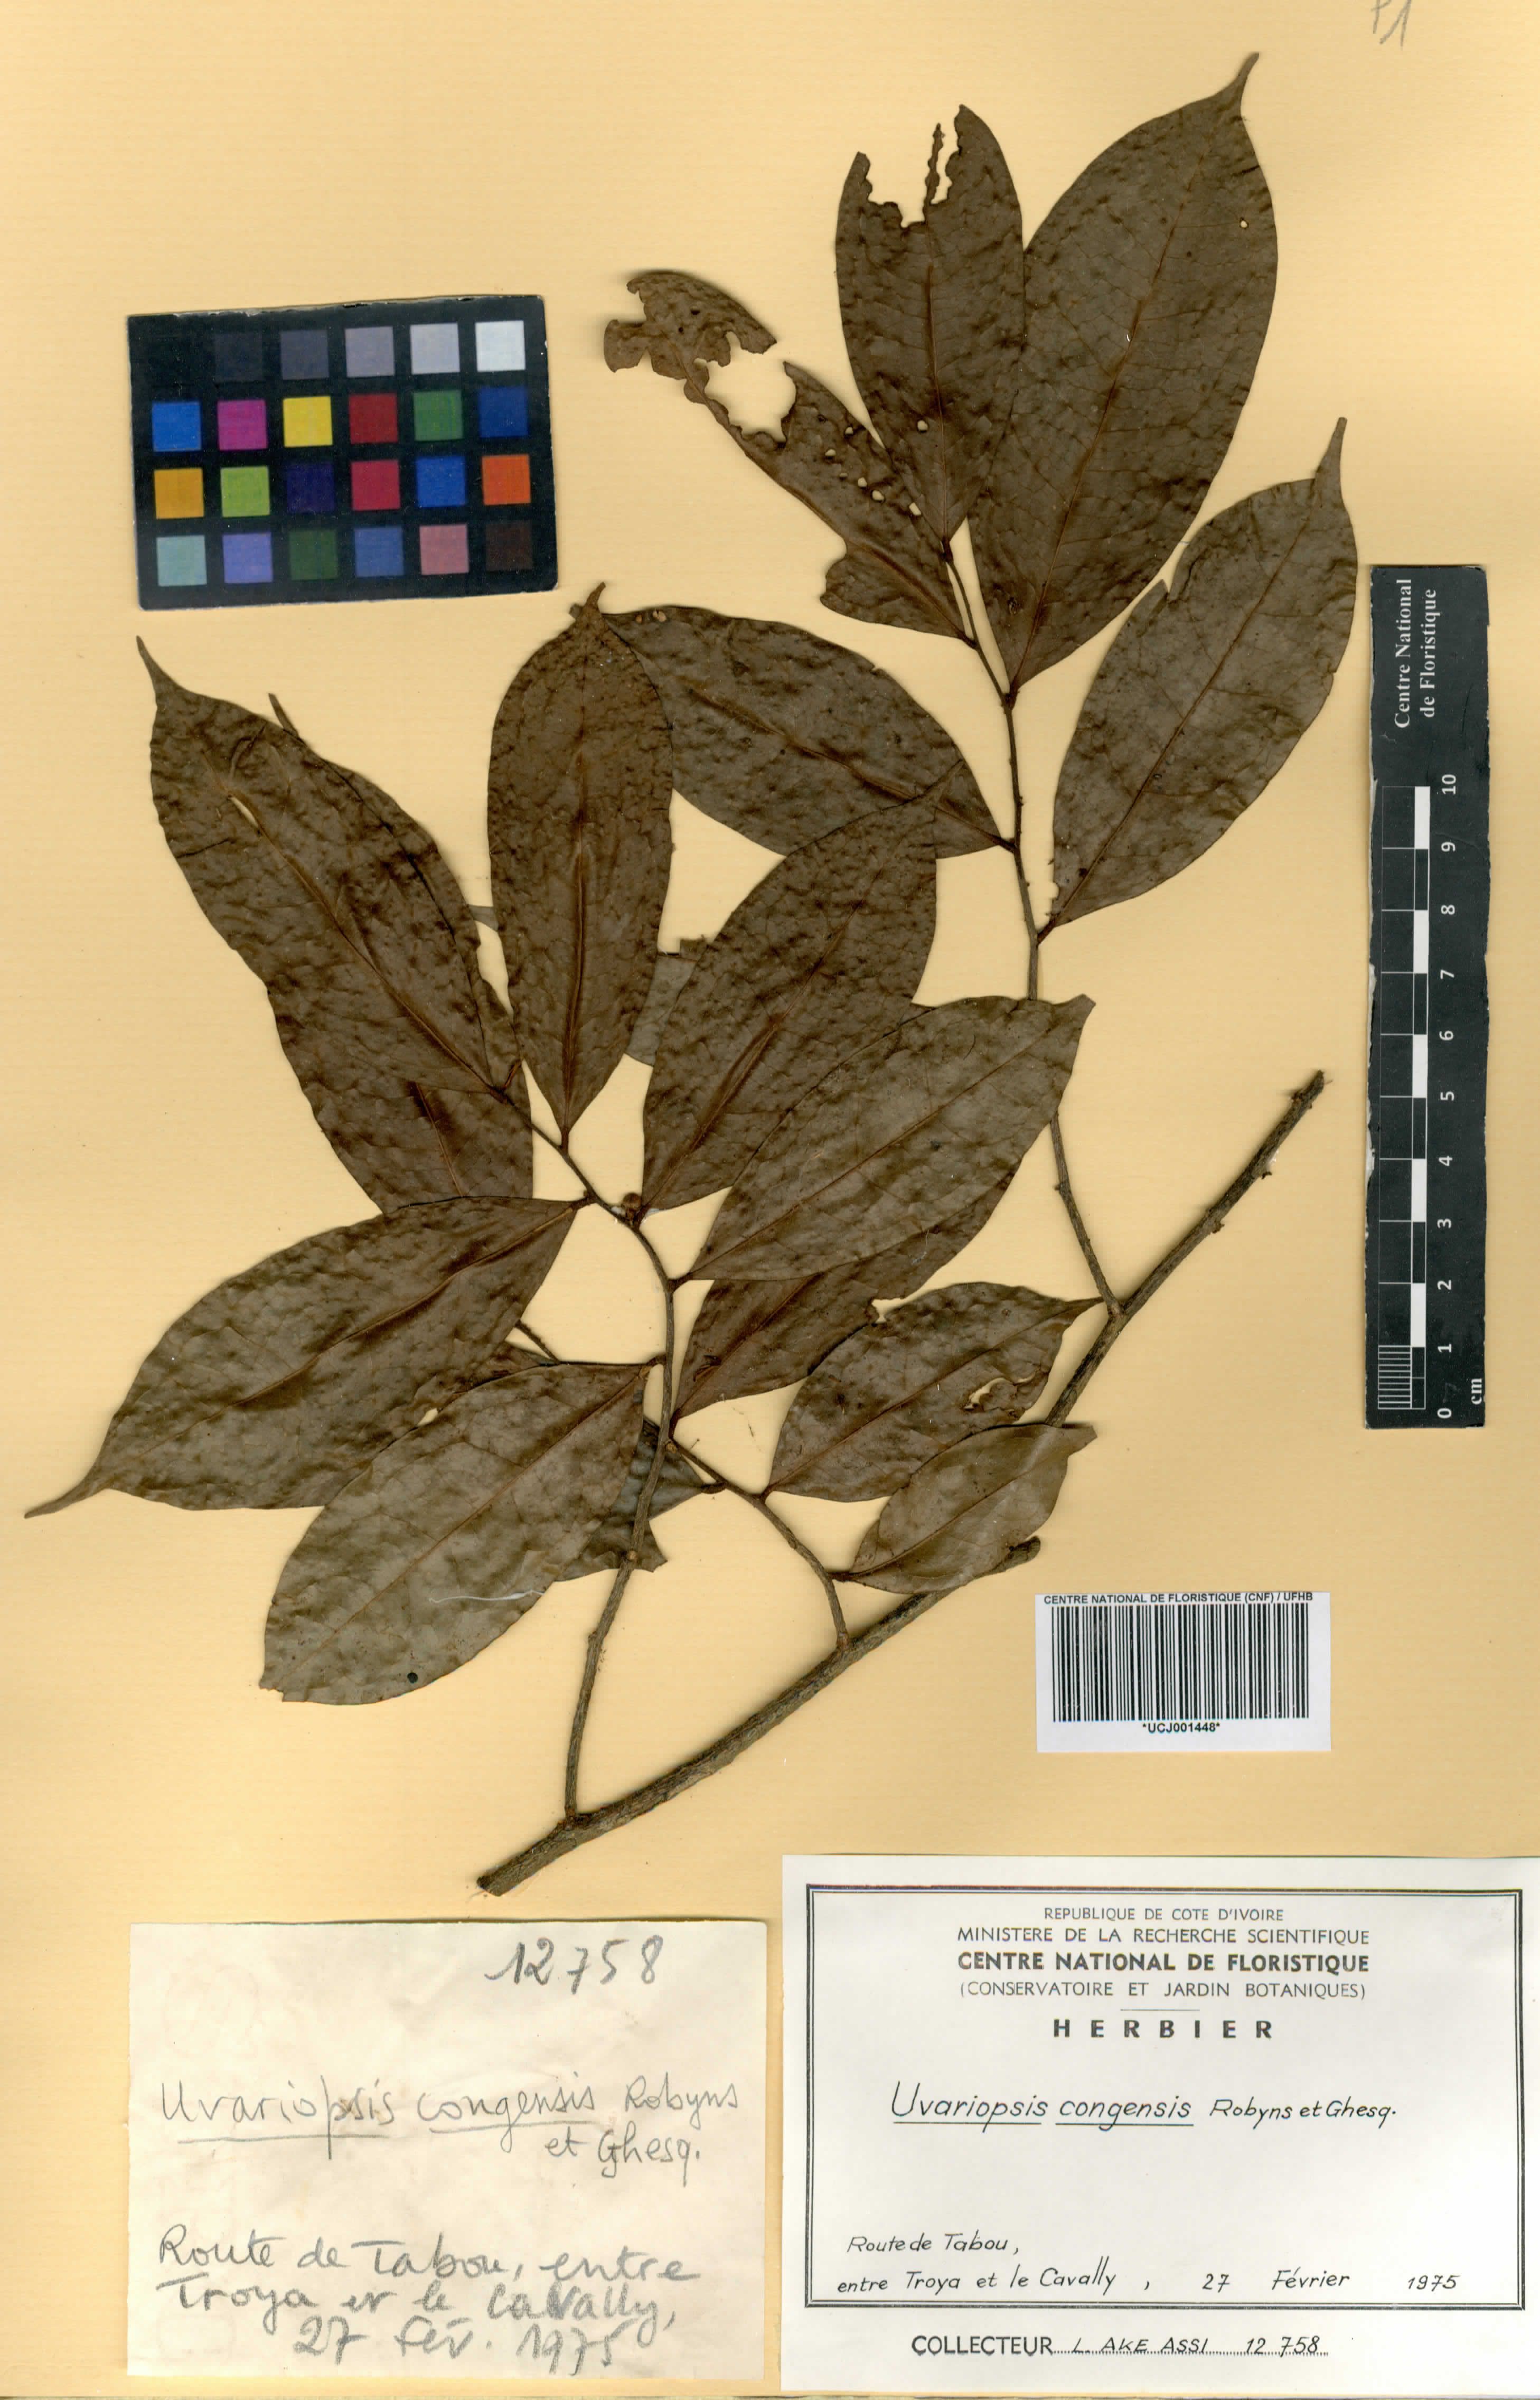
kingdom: Plantae
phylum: Tracheophyta
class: Magnoliopsida
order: Magnoliales
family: Annonaceae
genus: Uvariopsis
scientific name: Uvariopsis congensis
